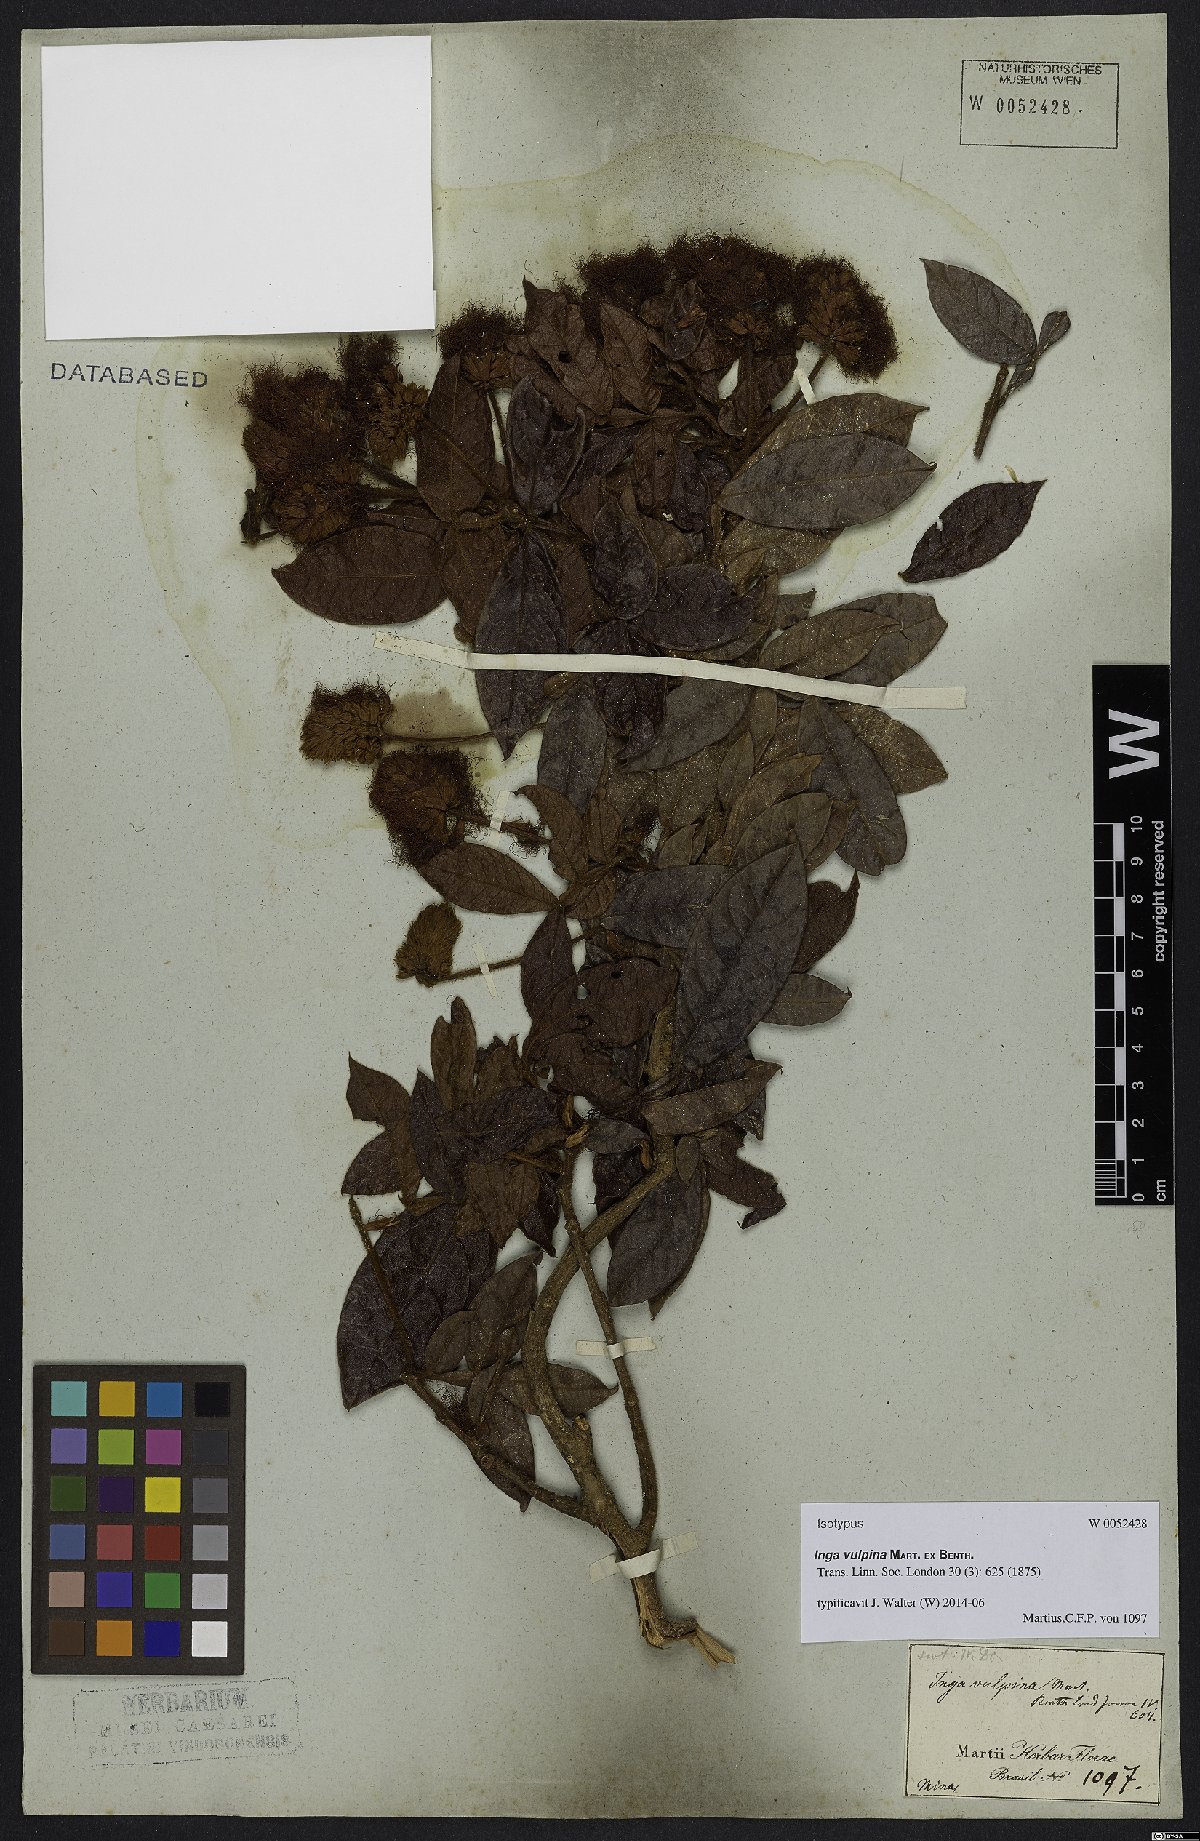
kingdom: Plantae
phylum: Tracheophyta
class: Magnoliopsida
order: Fabales
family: Fabaceae
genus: Inga
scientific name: Inga vulpina
